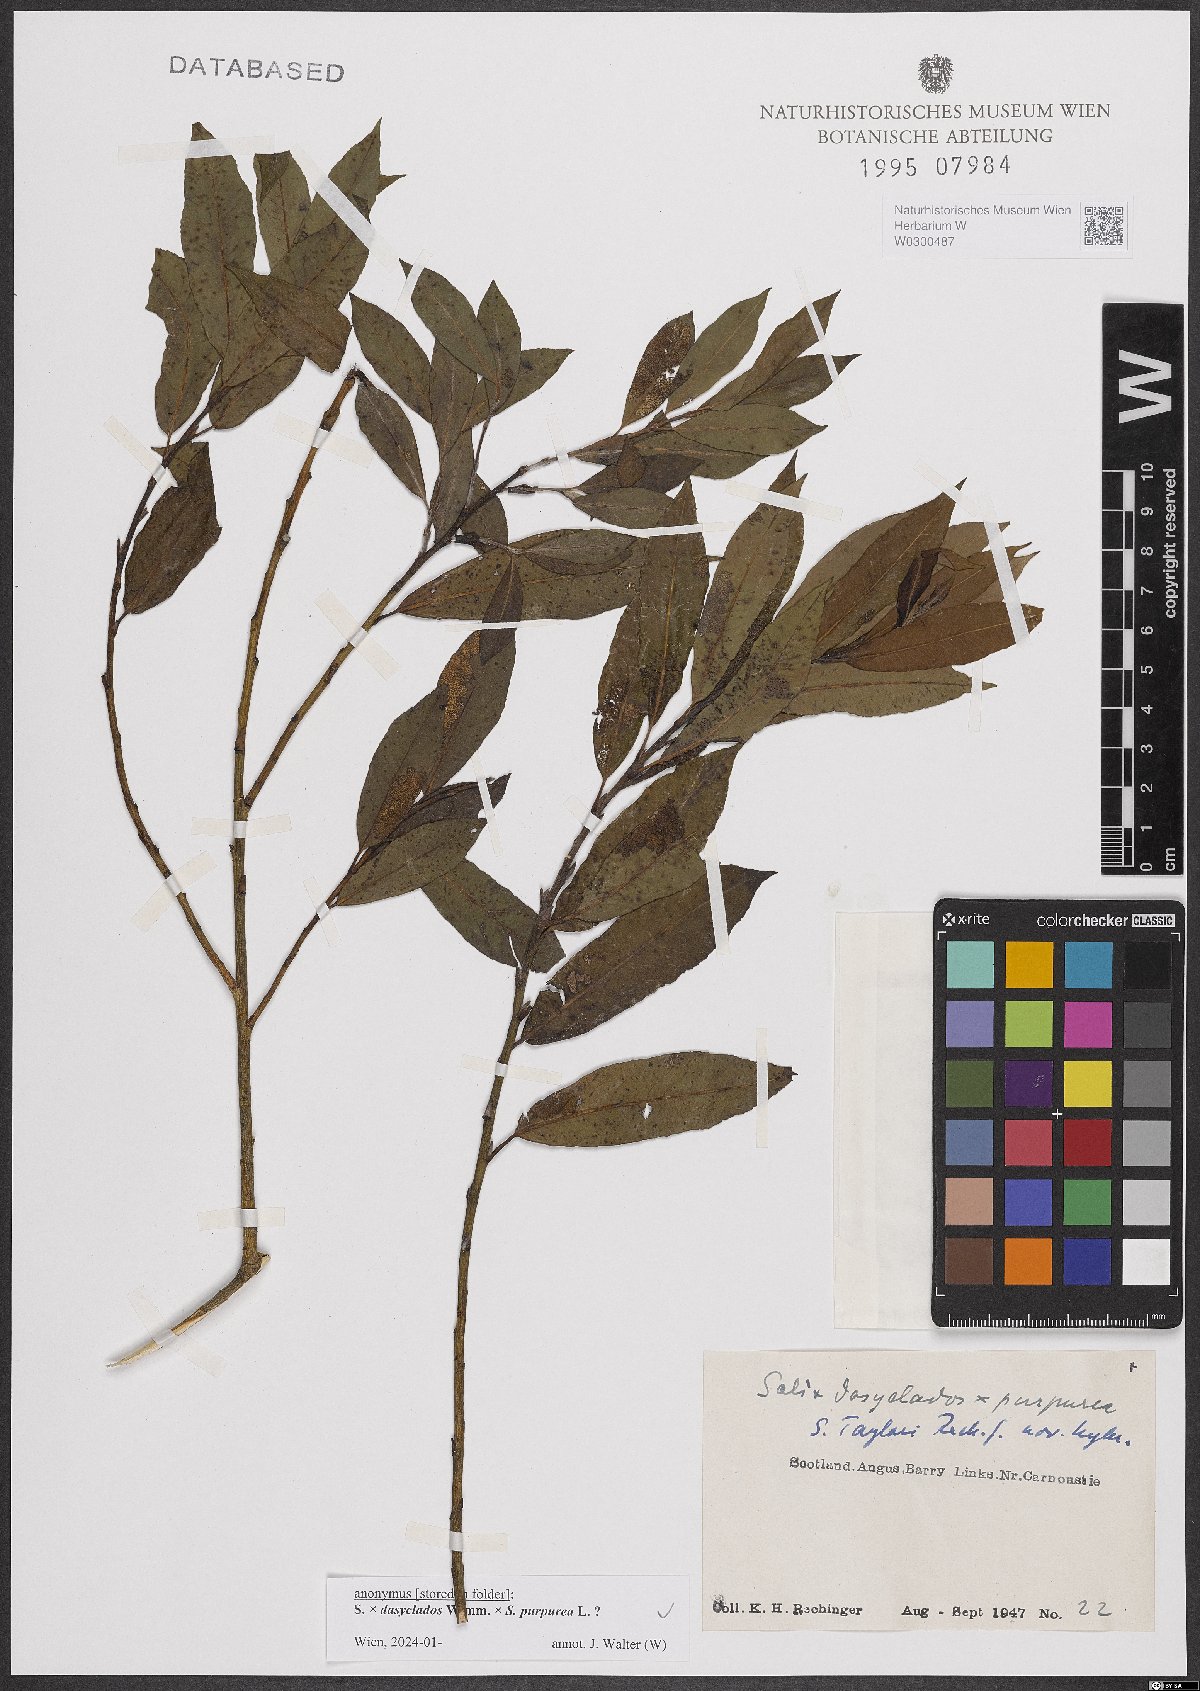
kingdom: Plantae
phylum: Tracheophyta
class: Magnoliopsida
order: Malpighiales
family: Salicaceae
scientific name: Salicaceae
